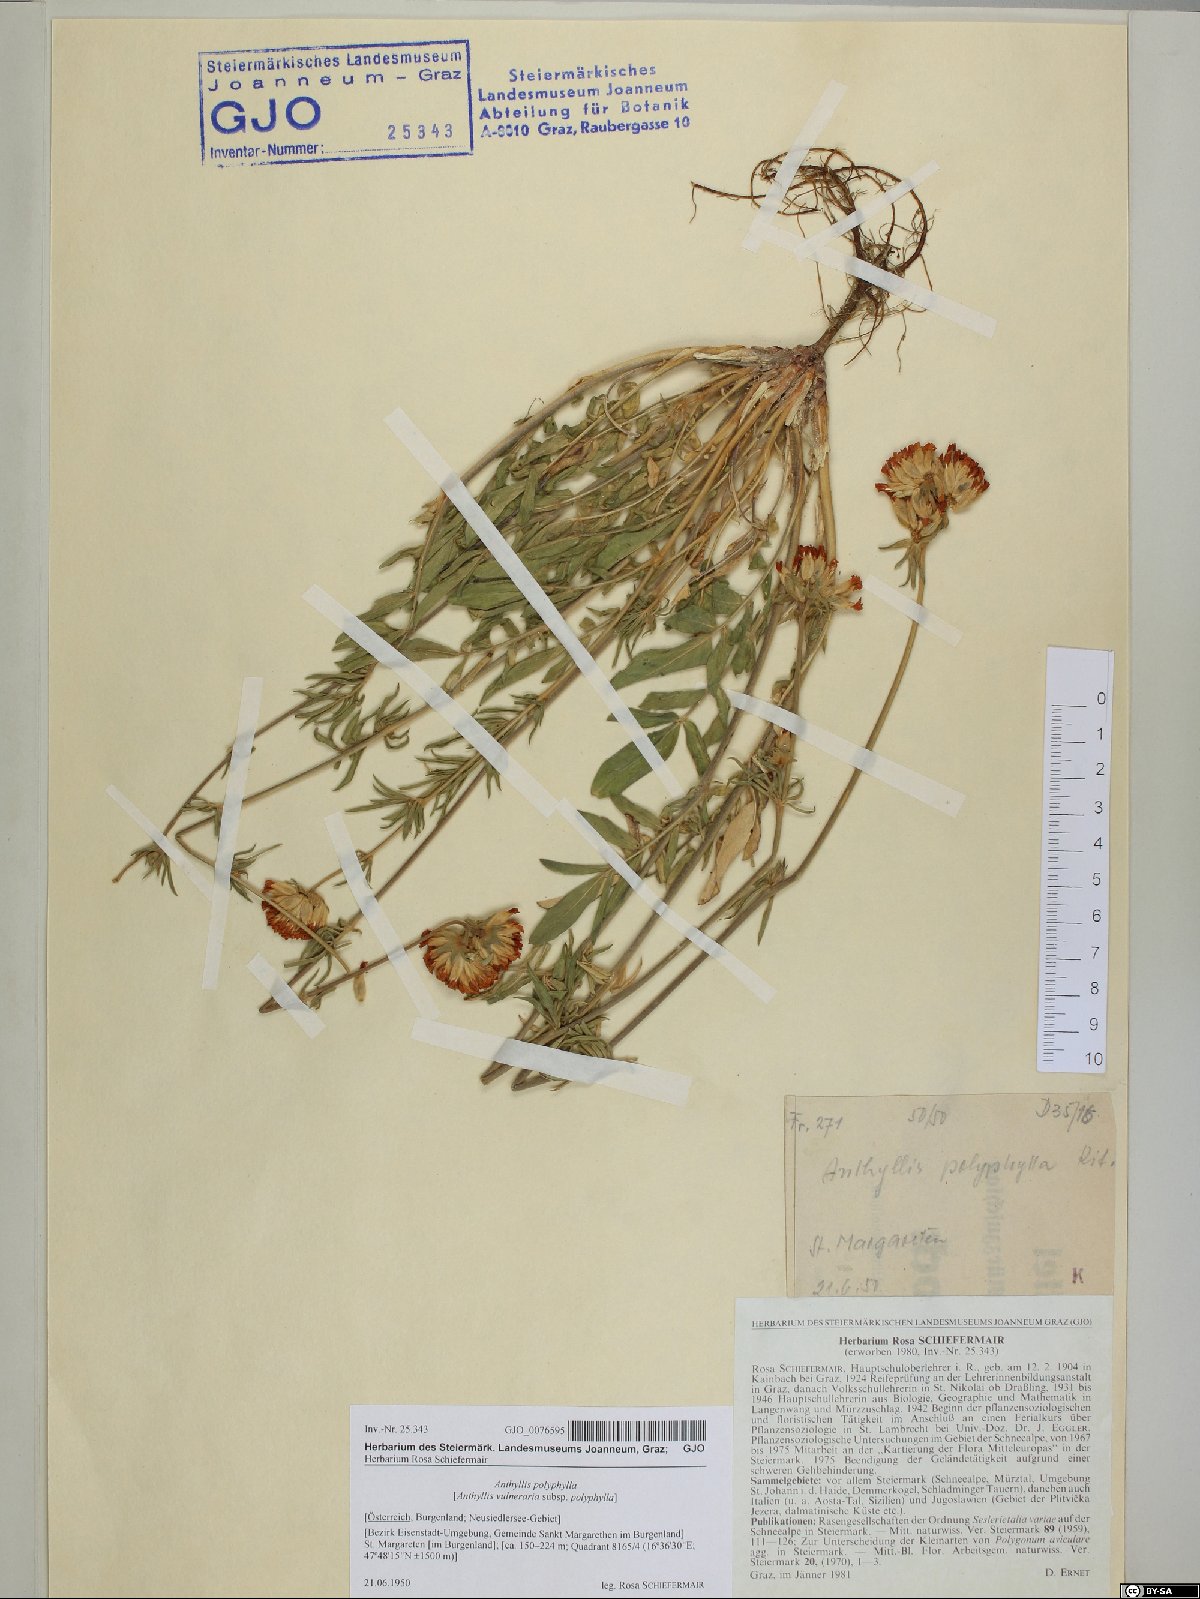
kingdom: Plantae
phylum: Tracheophyta
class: Magnoliopsida
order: Fabales
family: Fabaceae
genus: Anthyllis
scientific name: Anthyllis vulneraria
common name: Kidney vetch
